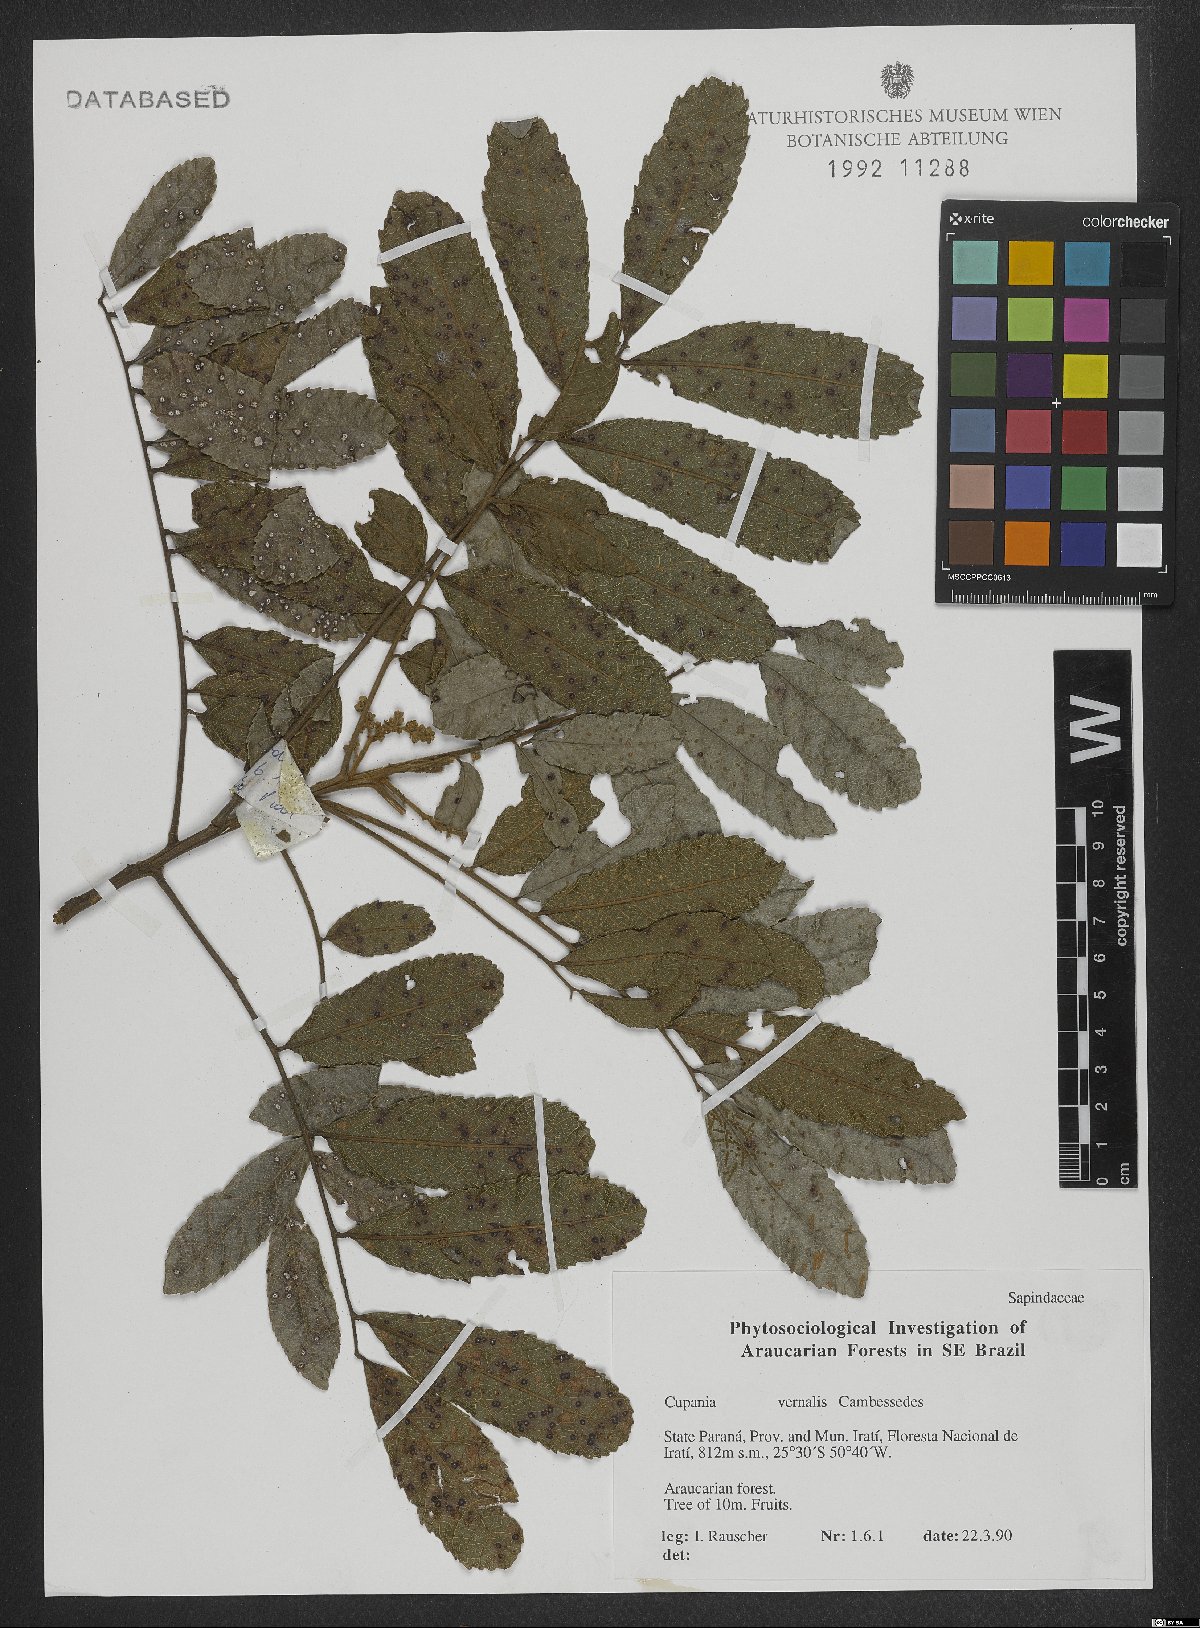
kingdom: Plantae
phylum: Tracheophyta
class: Magnoliopsida
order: Sapindales
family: Sapindaceae
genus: Cupania
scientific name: Cupania vernalis
